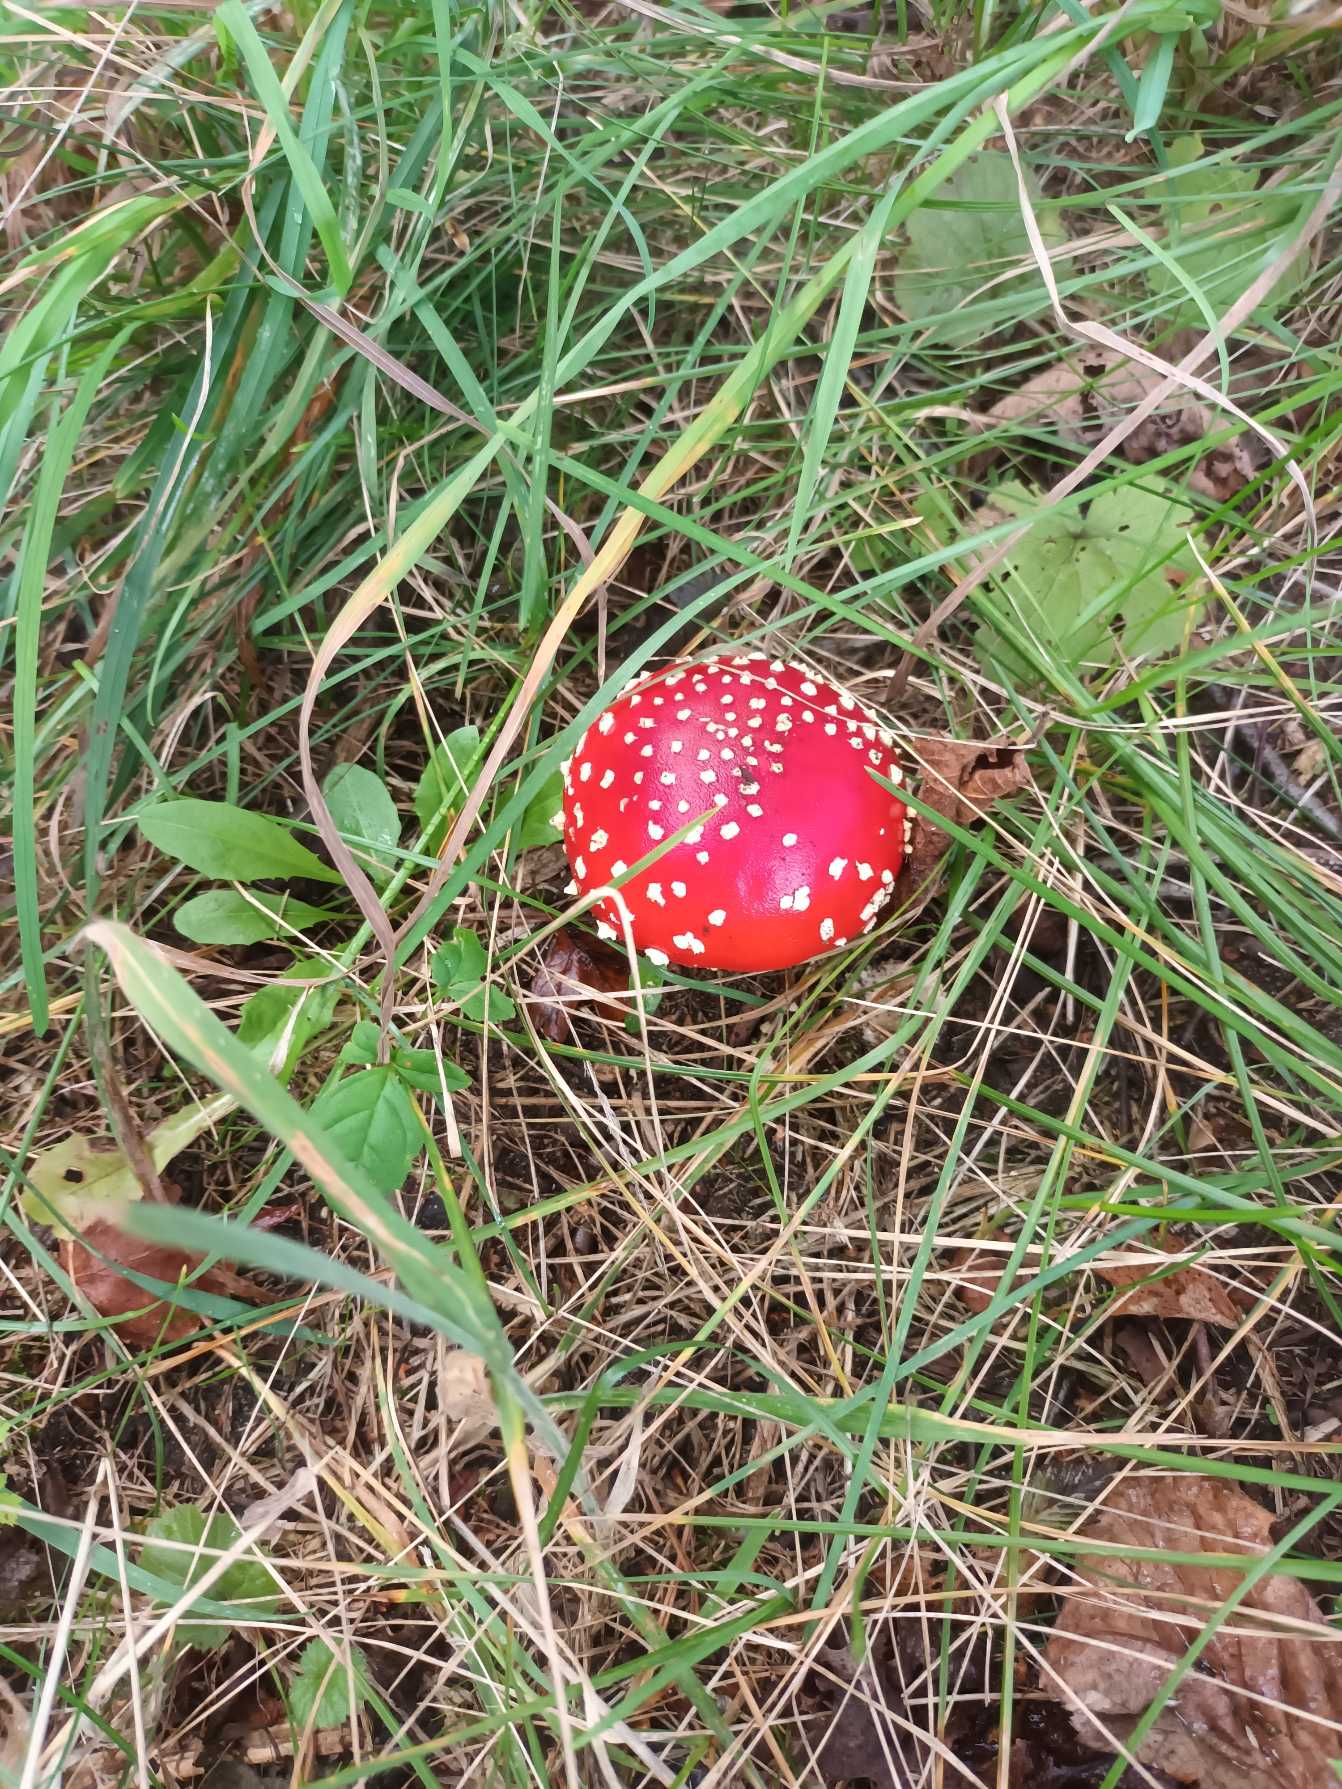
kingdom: Fungi
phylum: Basidiomycota
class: Agaricomycetes
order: Agaricales
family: Amanitaceae
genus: Amanita
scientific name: Amanita muscaria
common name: Rød fluesvamp
